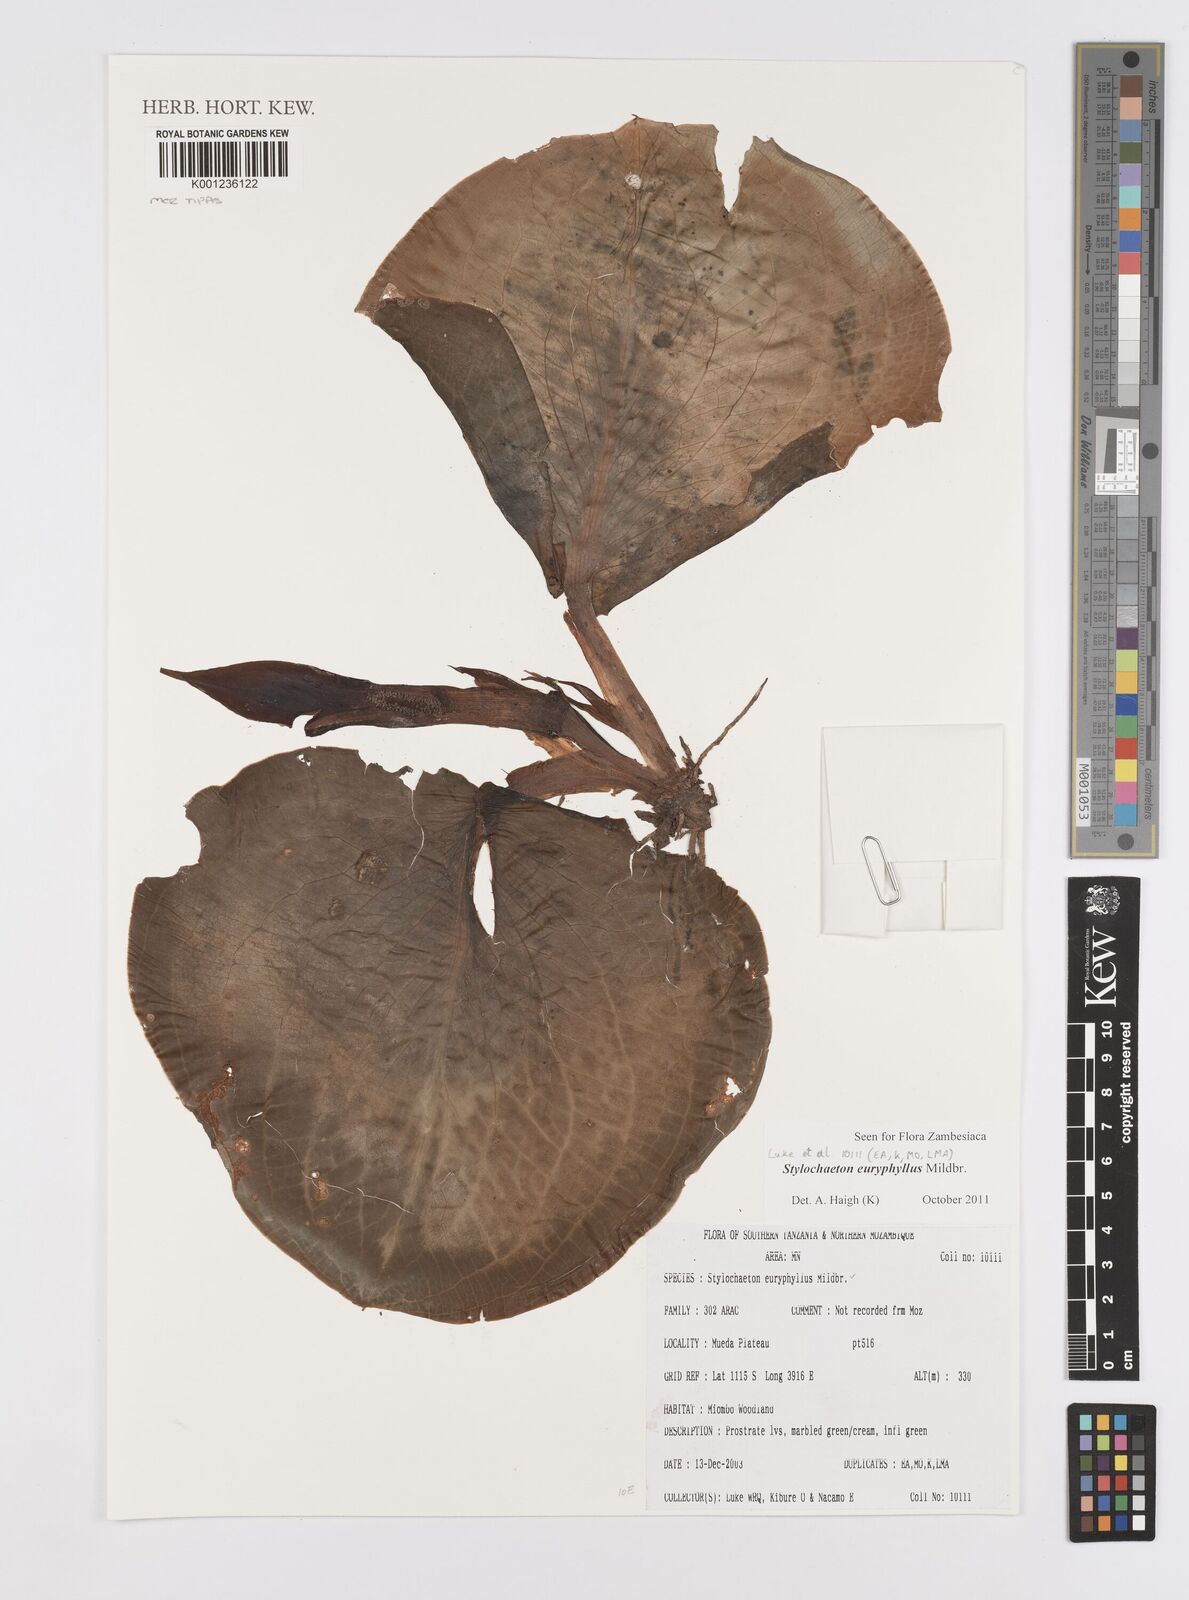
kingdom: Plantae
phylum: Tracheophyta
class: Liliopsida
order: Alismatales
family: Araceae
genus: Stylochaeton
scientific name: Stylochaeton euryphyllum
